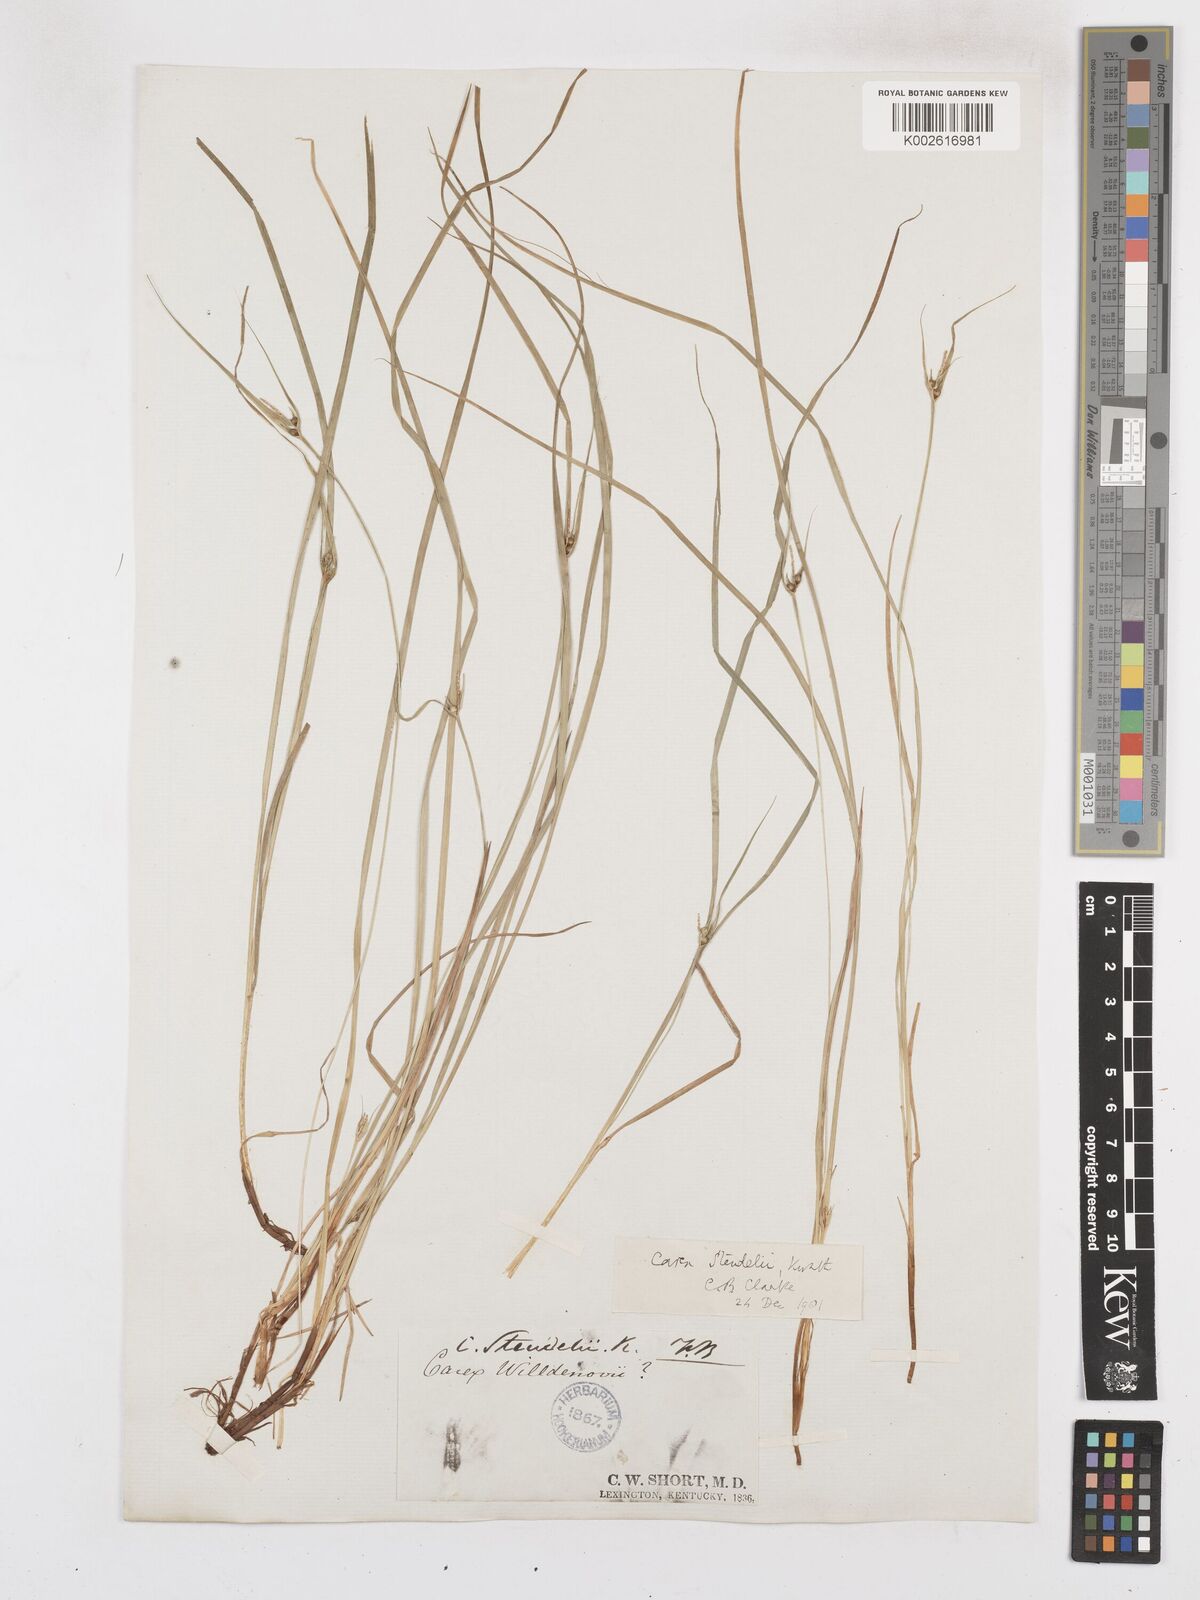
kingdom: Plantae
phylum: Tracheophyta
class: Liliopsida
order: Poales
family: Cyperaceae
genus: Carex
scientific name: Carex jamesii
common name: Grass sedge
